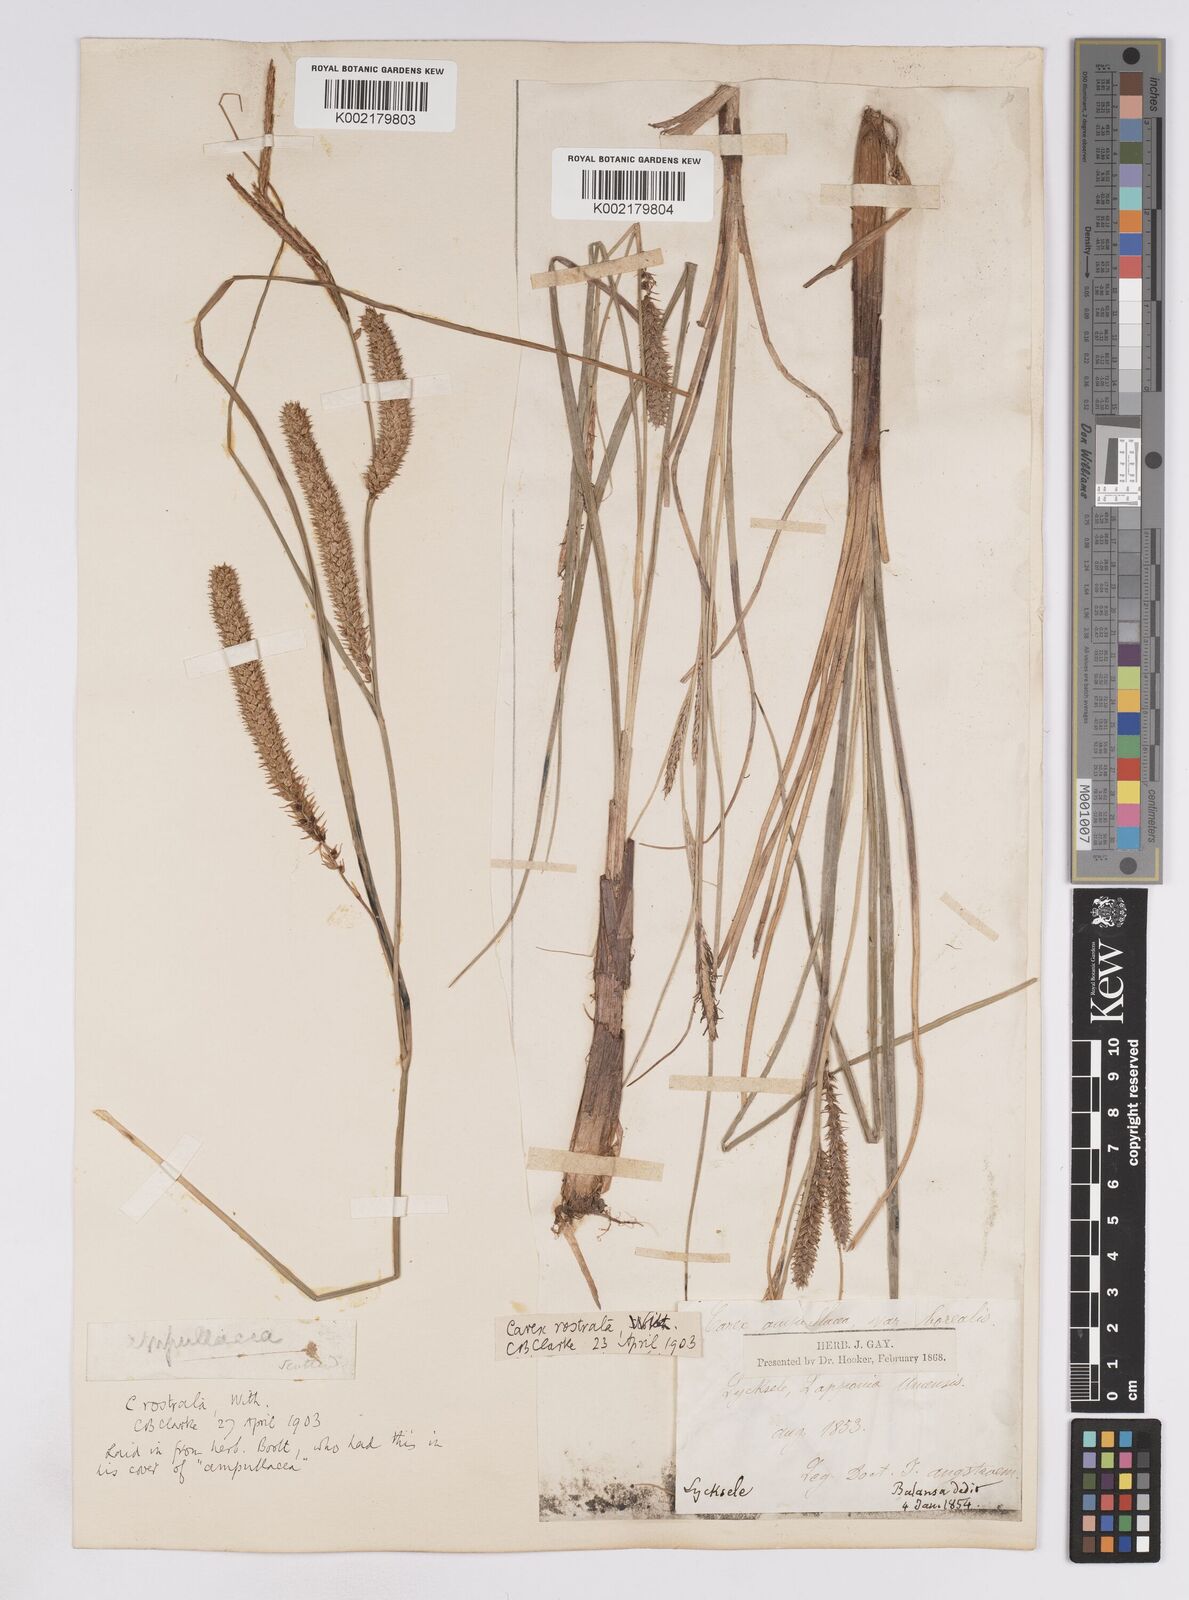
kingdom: Plantae
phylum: Tracheophyta
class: Liliopsida
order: Poales
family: Cyperaceae
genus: Carex
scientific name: Carex rostrata
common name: Bottle sedge
